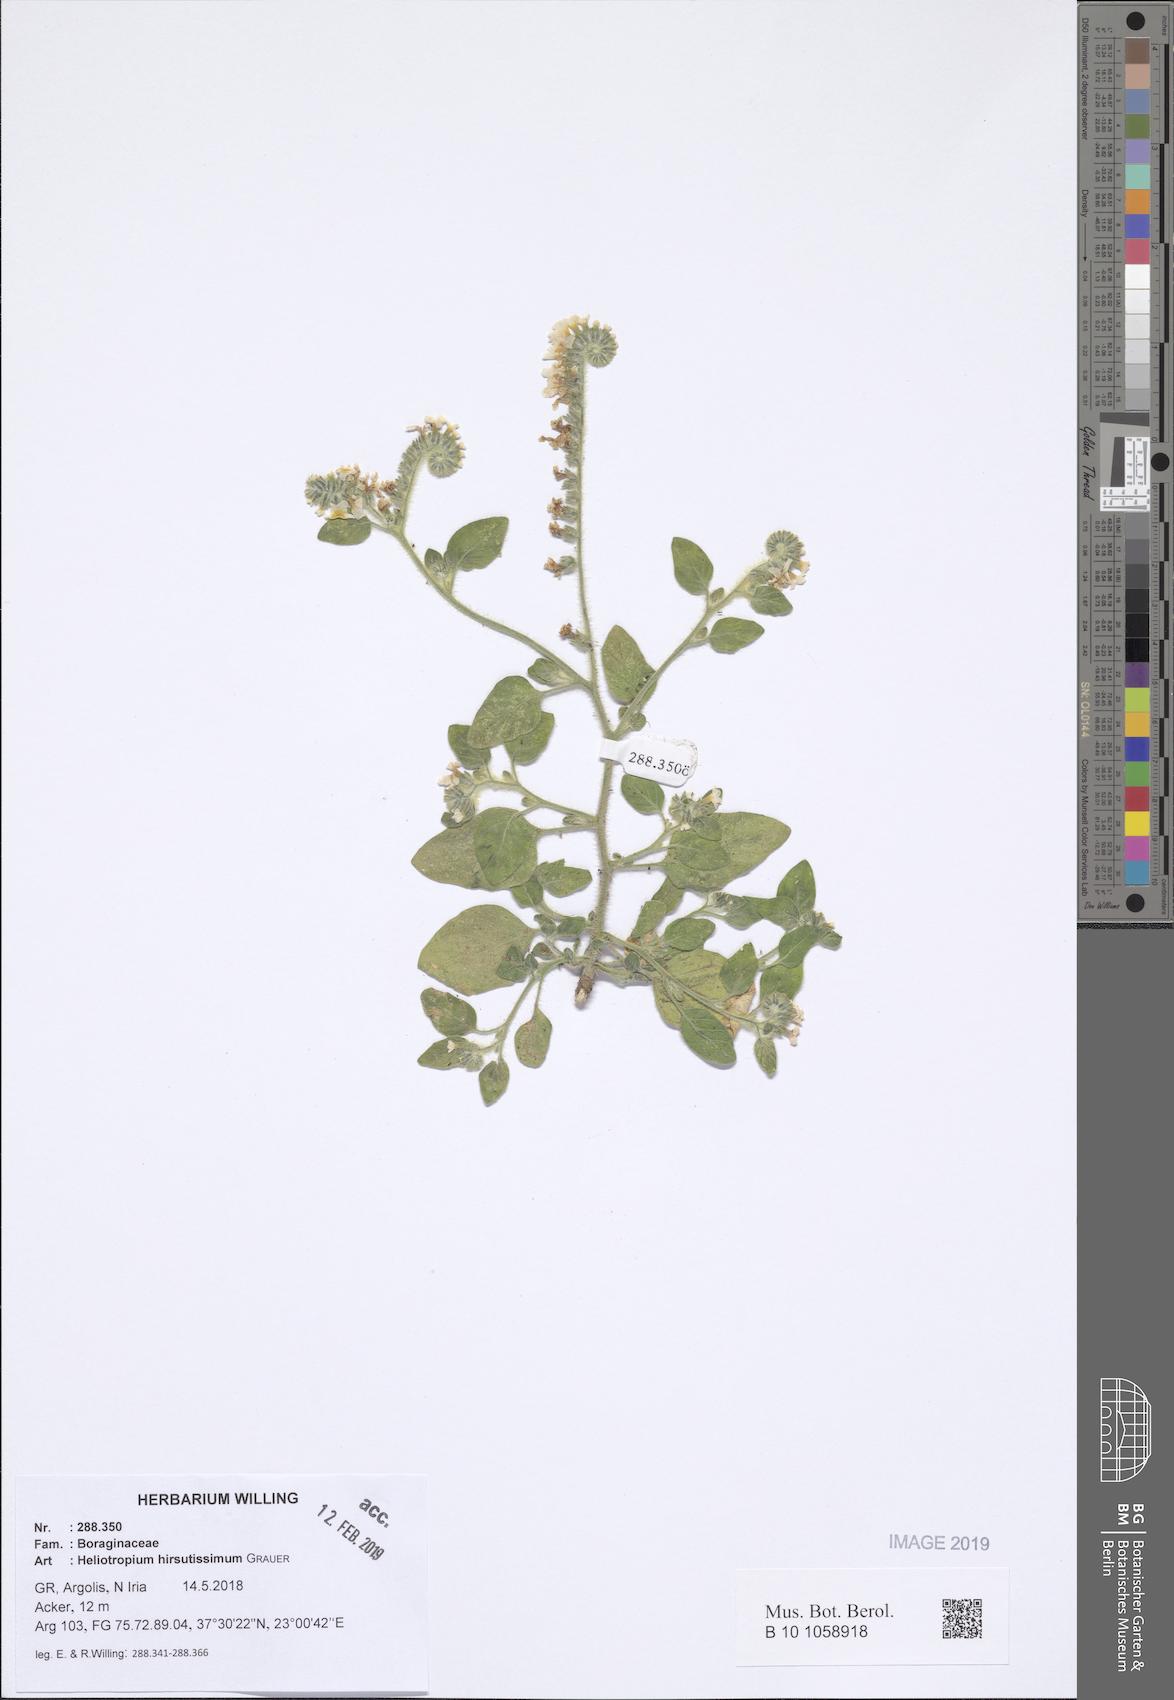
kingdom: Plantae
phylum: Tracheophyta
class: Magnoliopsida
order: Boraginales
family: Heliotropiaceae
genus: Heliotropium
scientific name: Heliotropium hirsutissimum
